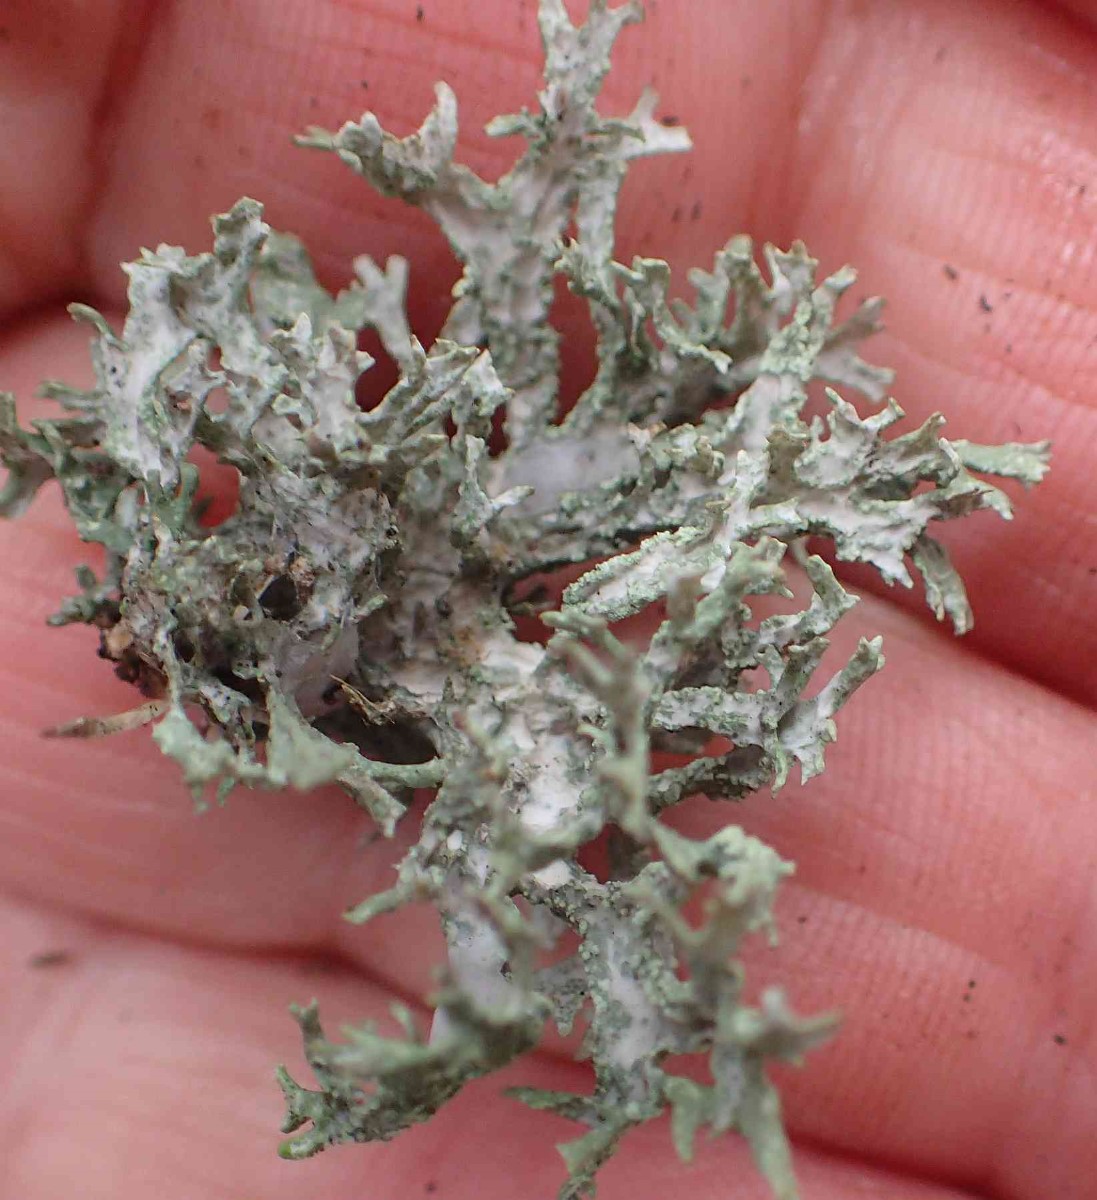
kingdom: Fungi
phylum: Ascomycota
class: Lecanoromycetes
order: Lecanorales
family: Parmeliaceae
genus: Evernia
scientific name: Evernia prunastri
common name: almindelig slåenlav
